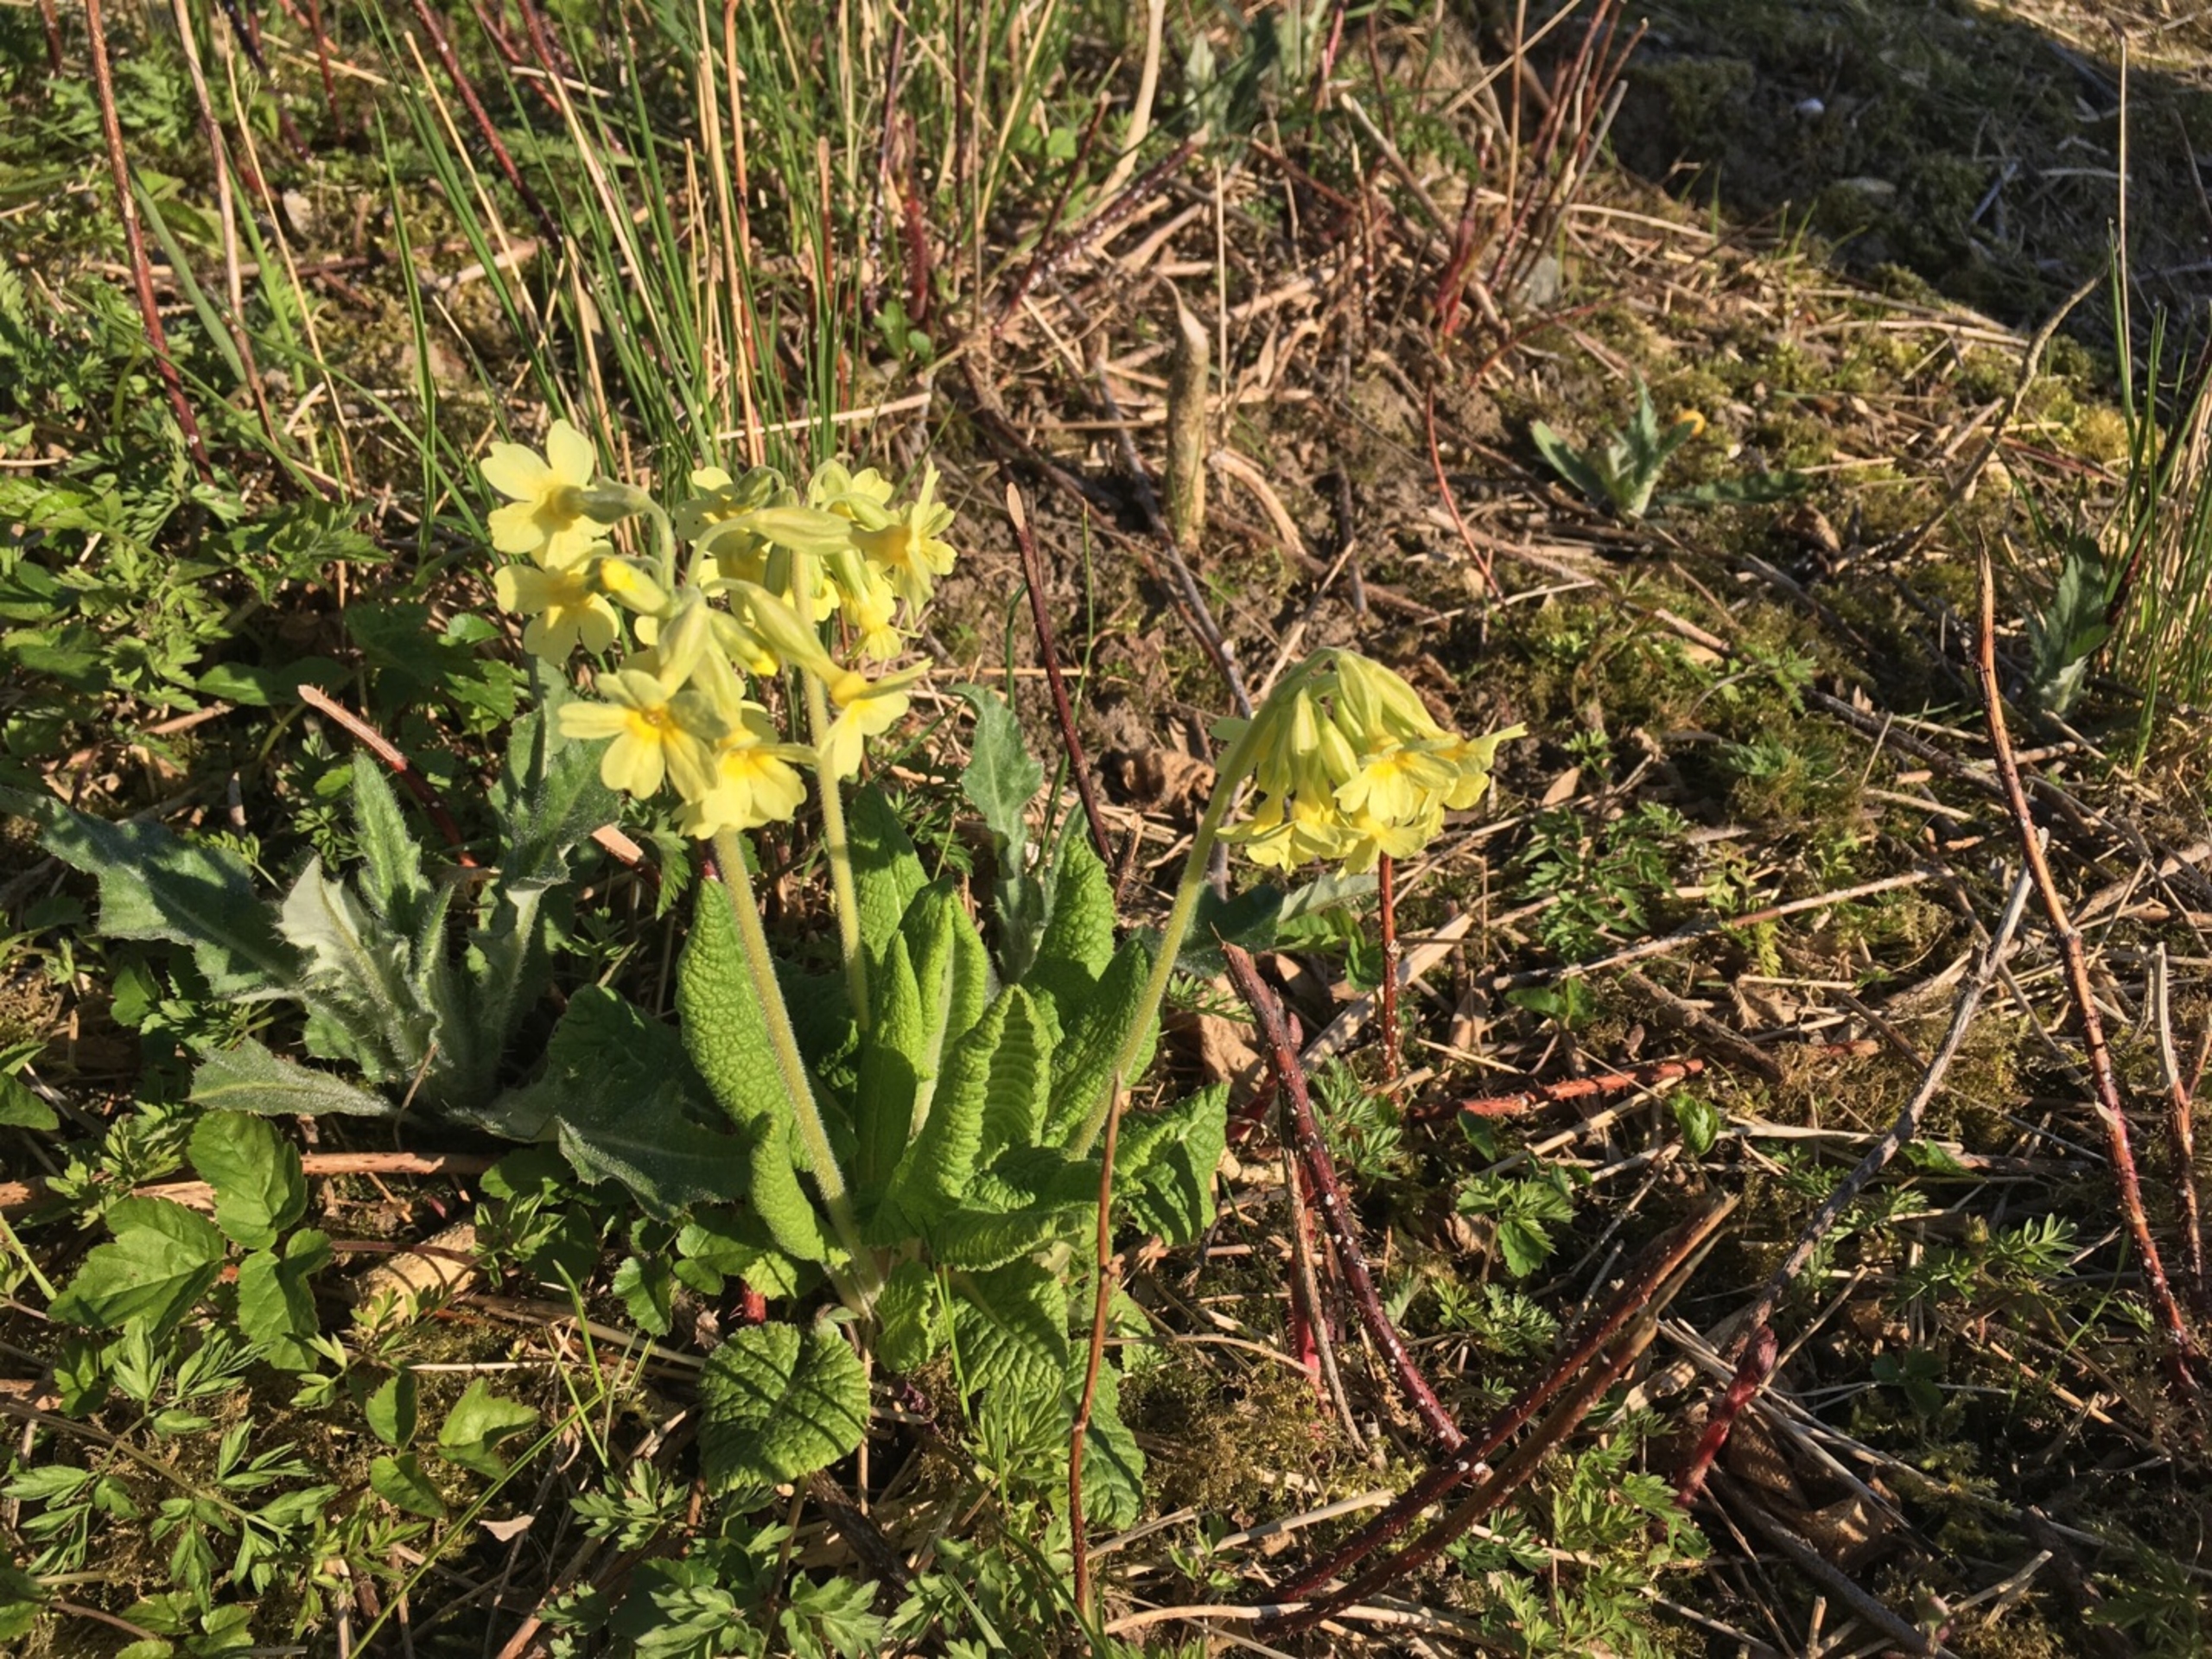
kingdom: Plantae
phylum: Tracheophyta
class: Magnoliopsida
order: Ericales
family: Primulaceae
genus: Primula
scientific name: Primula elatior
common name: Fladkravet kodriver
